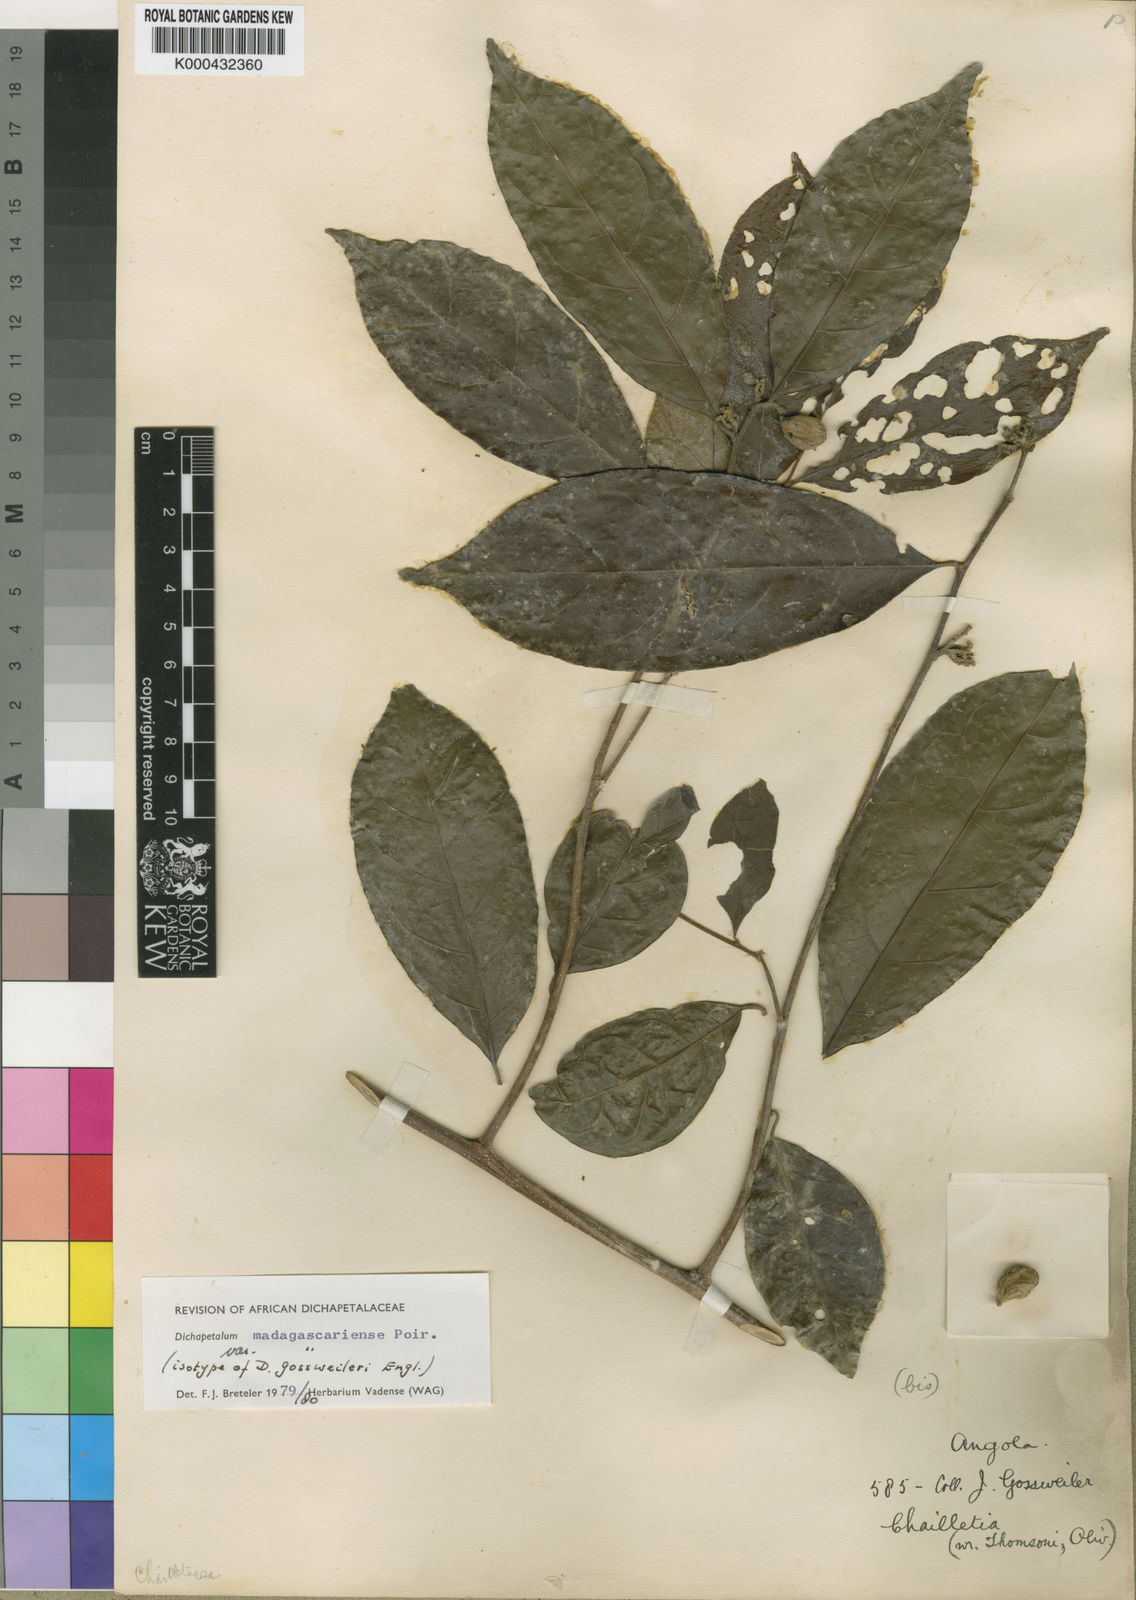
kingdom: Plantae
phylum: Tracheophyta
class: Magnoliopsida
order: Malpighiales
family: Dichapetalaceae
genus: Dichapetalum
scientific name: Dichapetalum madagascariense
